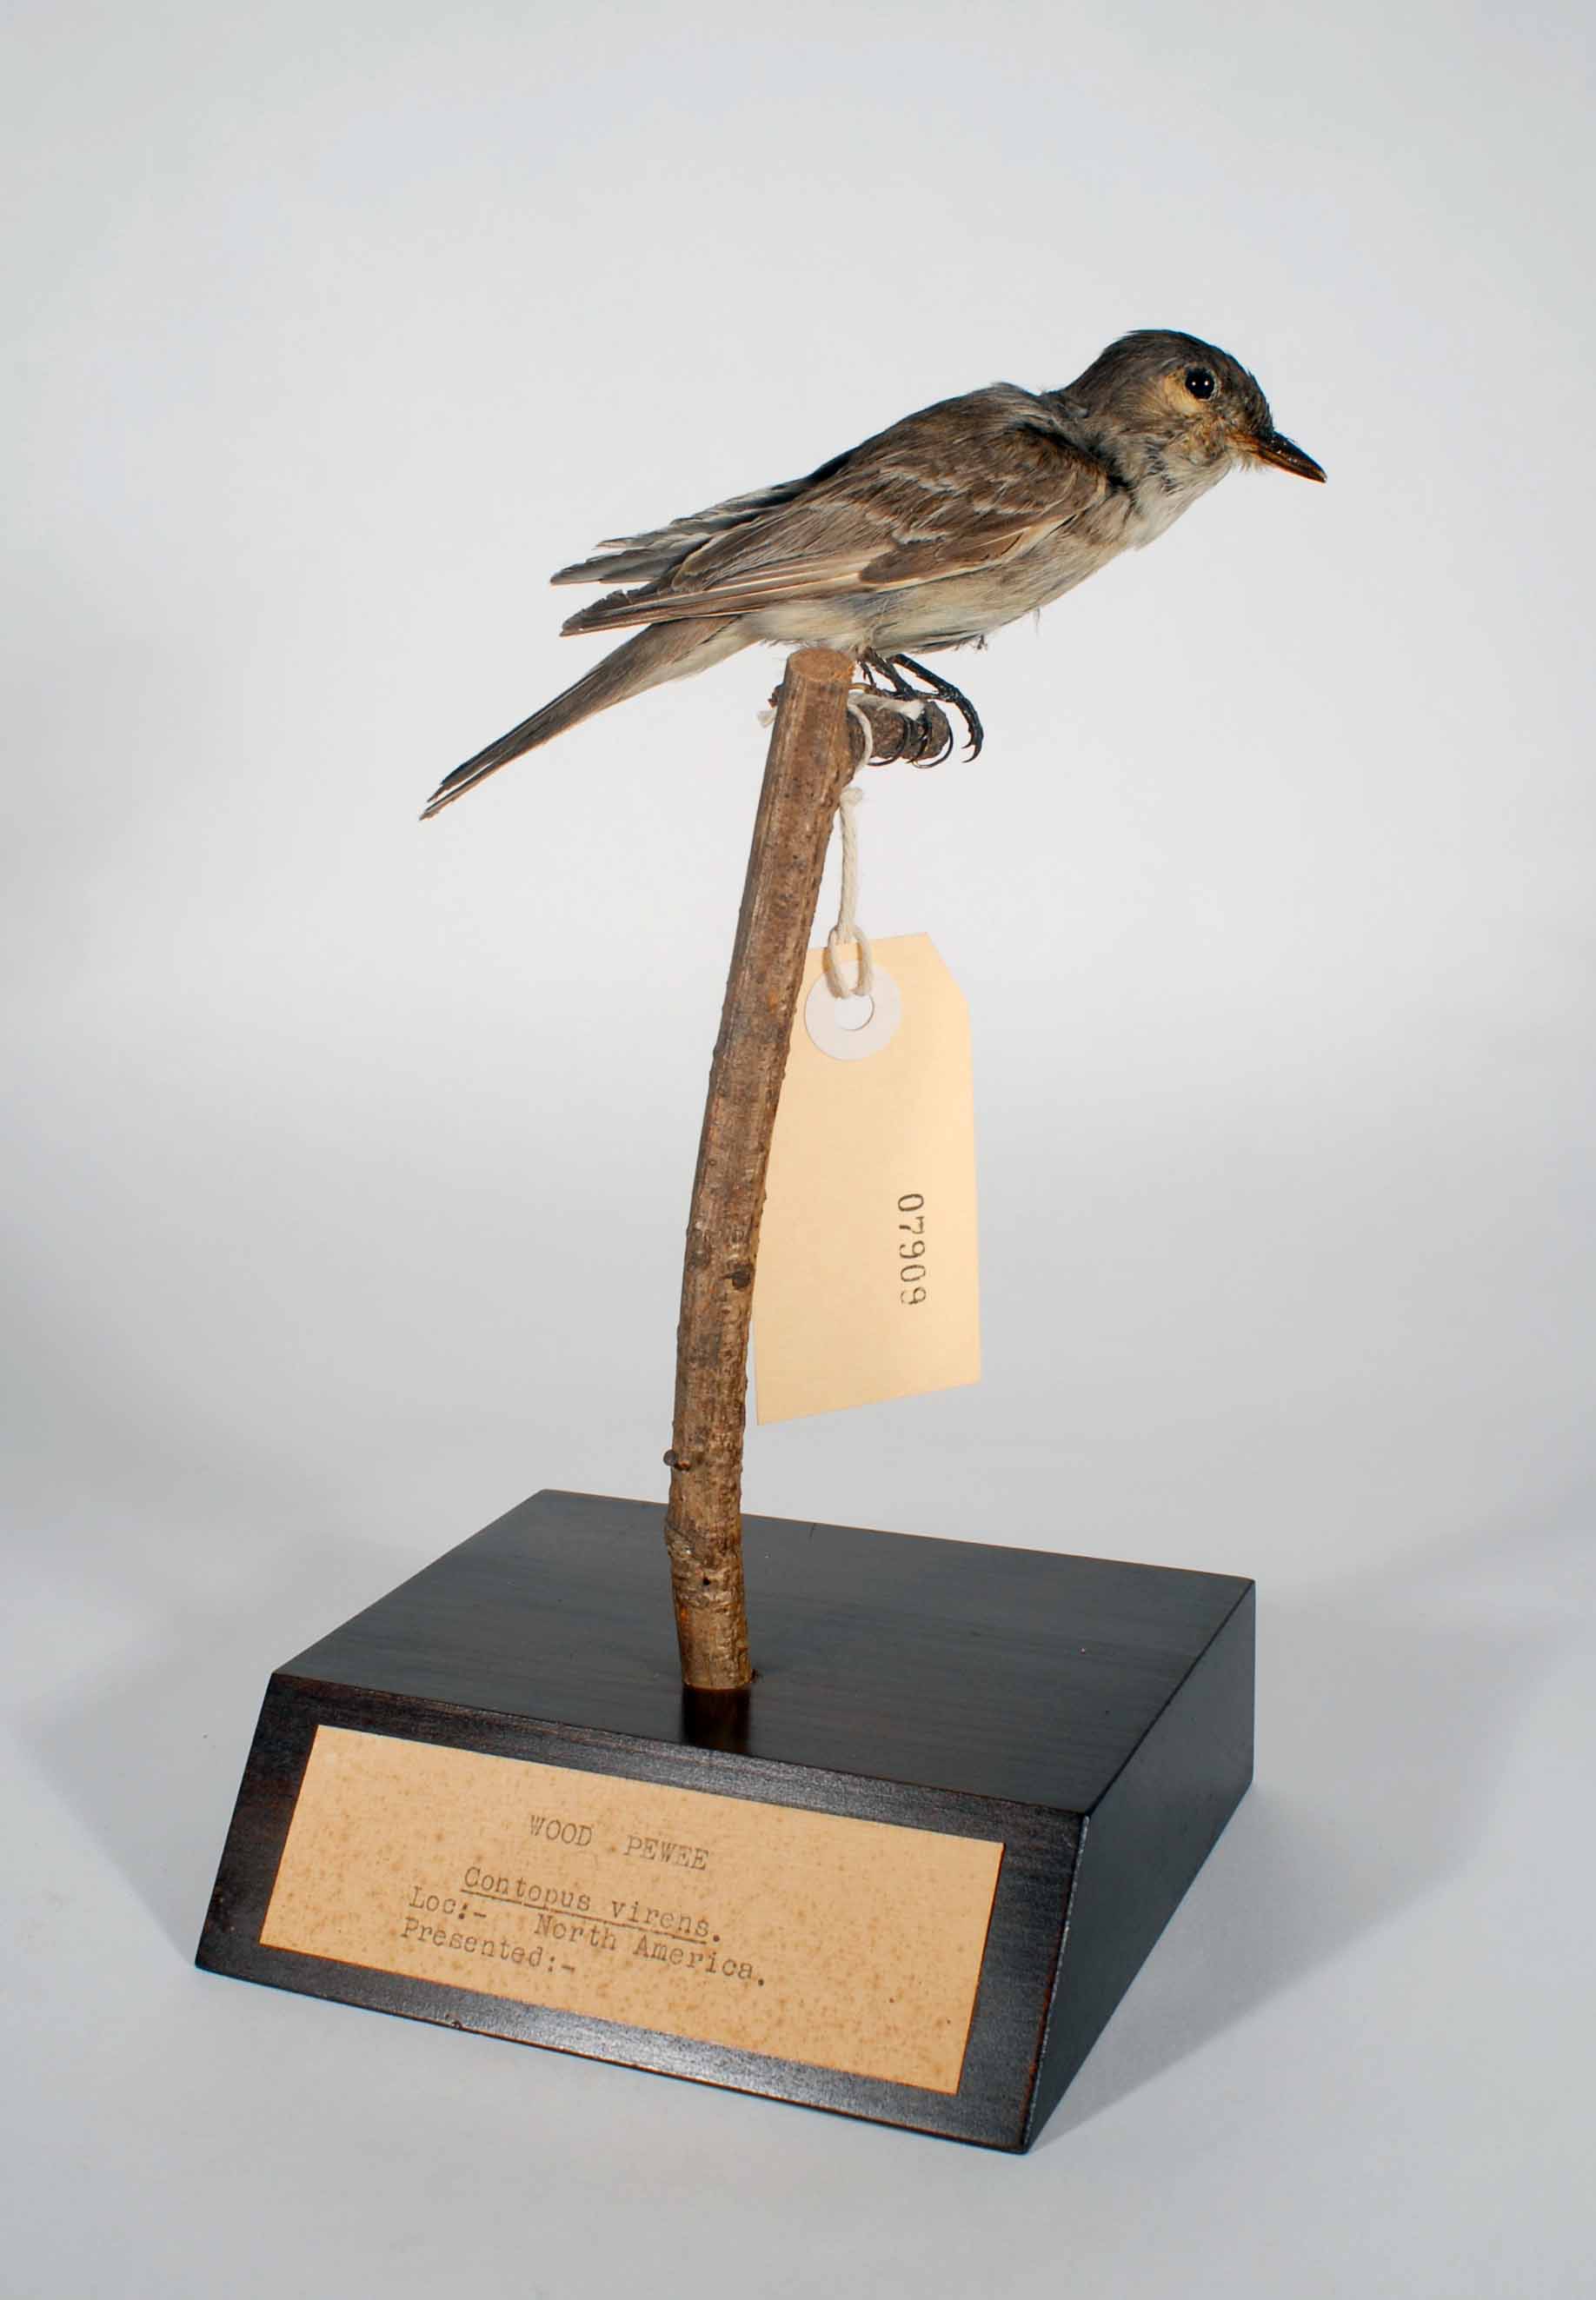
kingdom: Animalia
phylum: Chordata
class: Aves
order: Passeriformes
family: Tyrannidae
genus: Contopus
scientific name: Contopus virens
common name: Eastern wood-pewee
